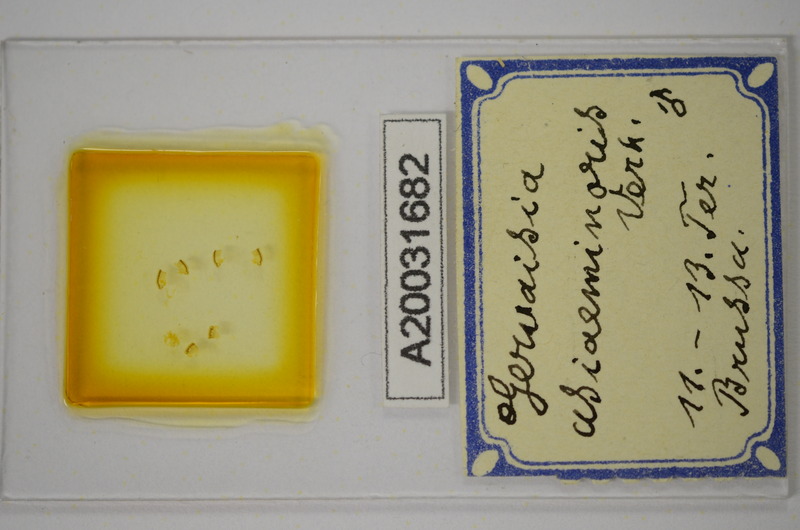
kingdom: Animalia
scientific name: Animalia
